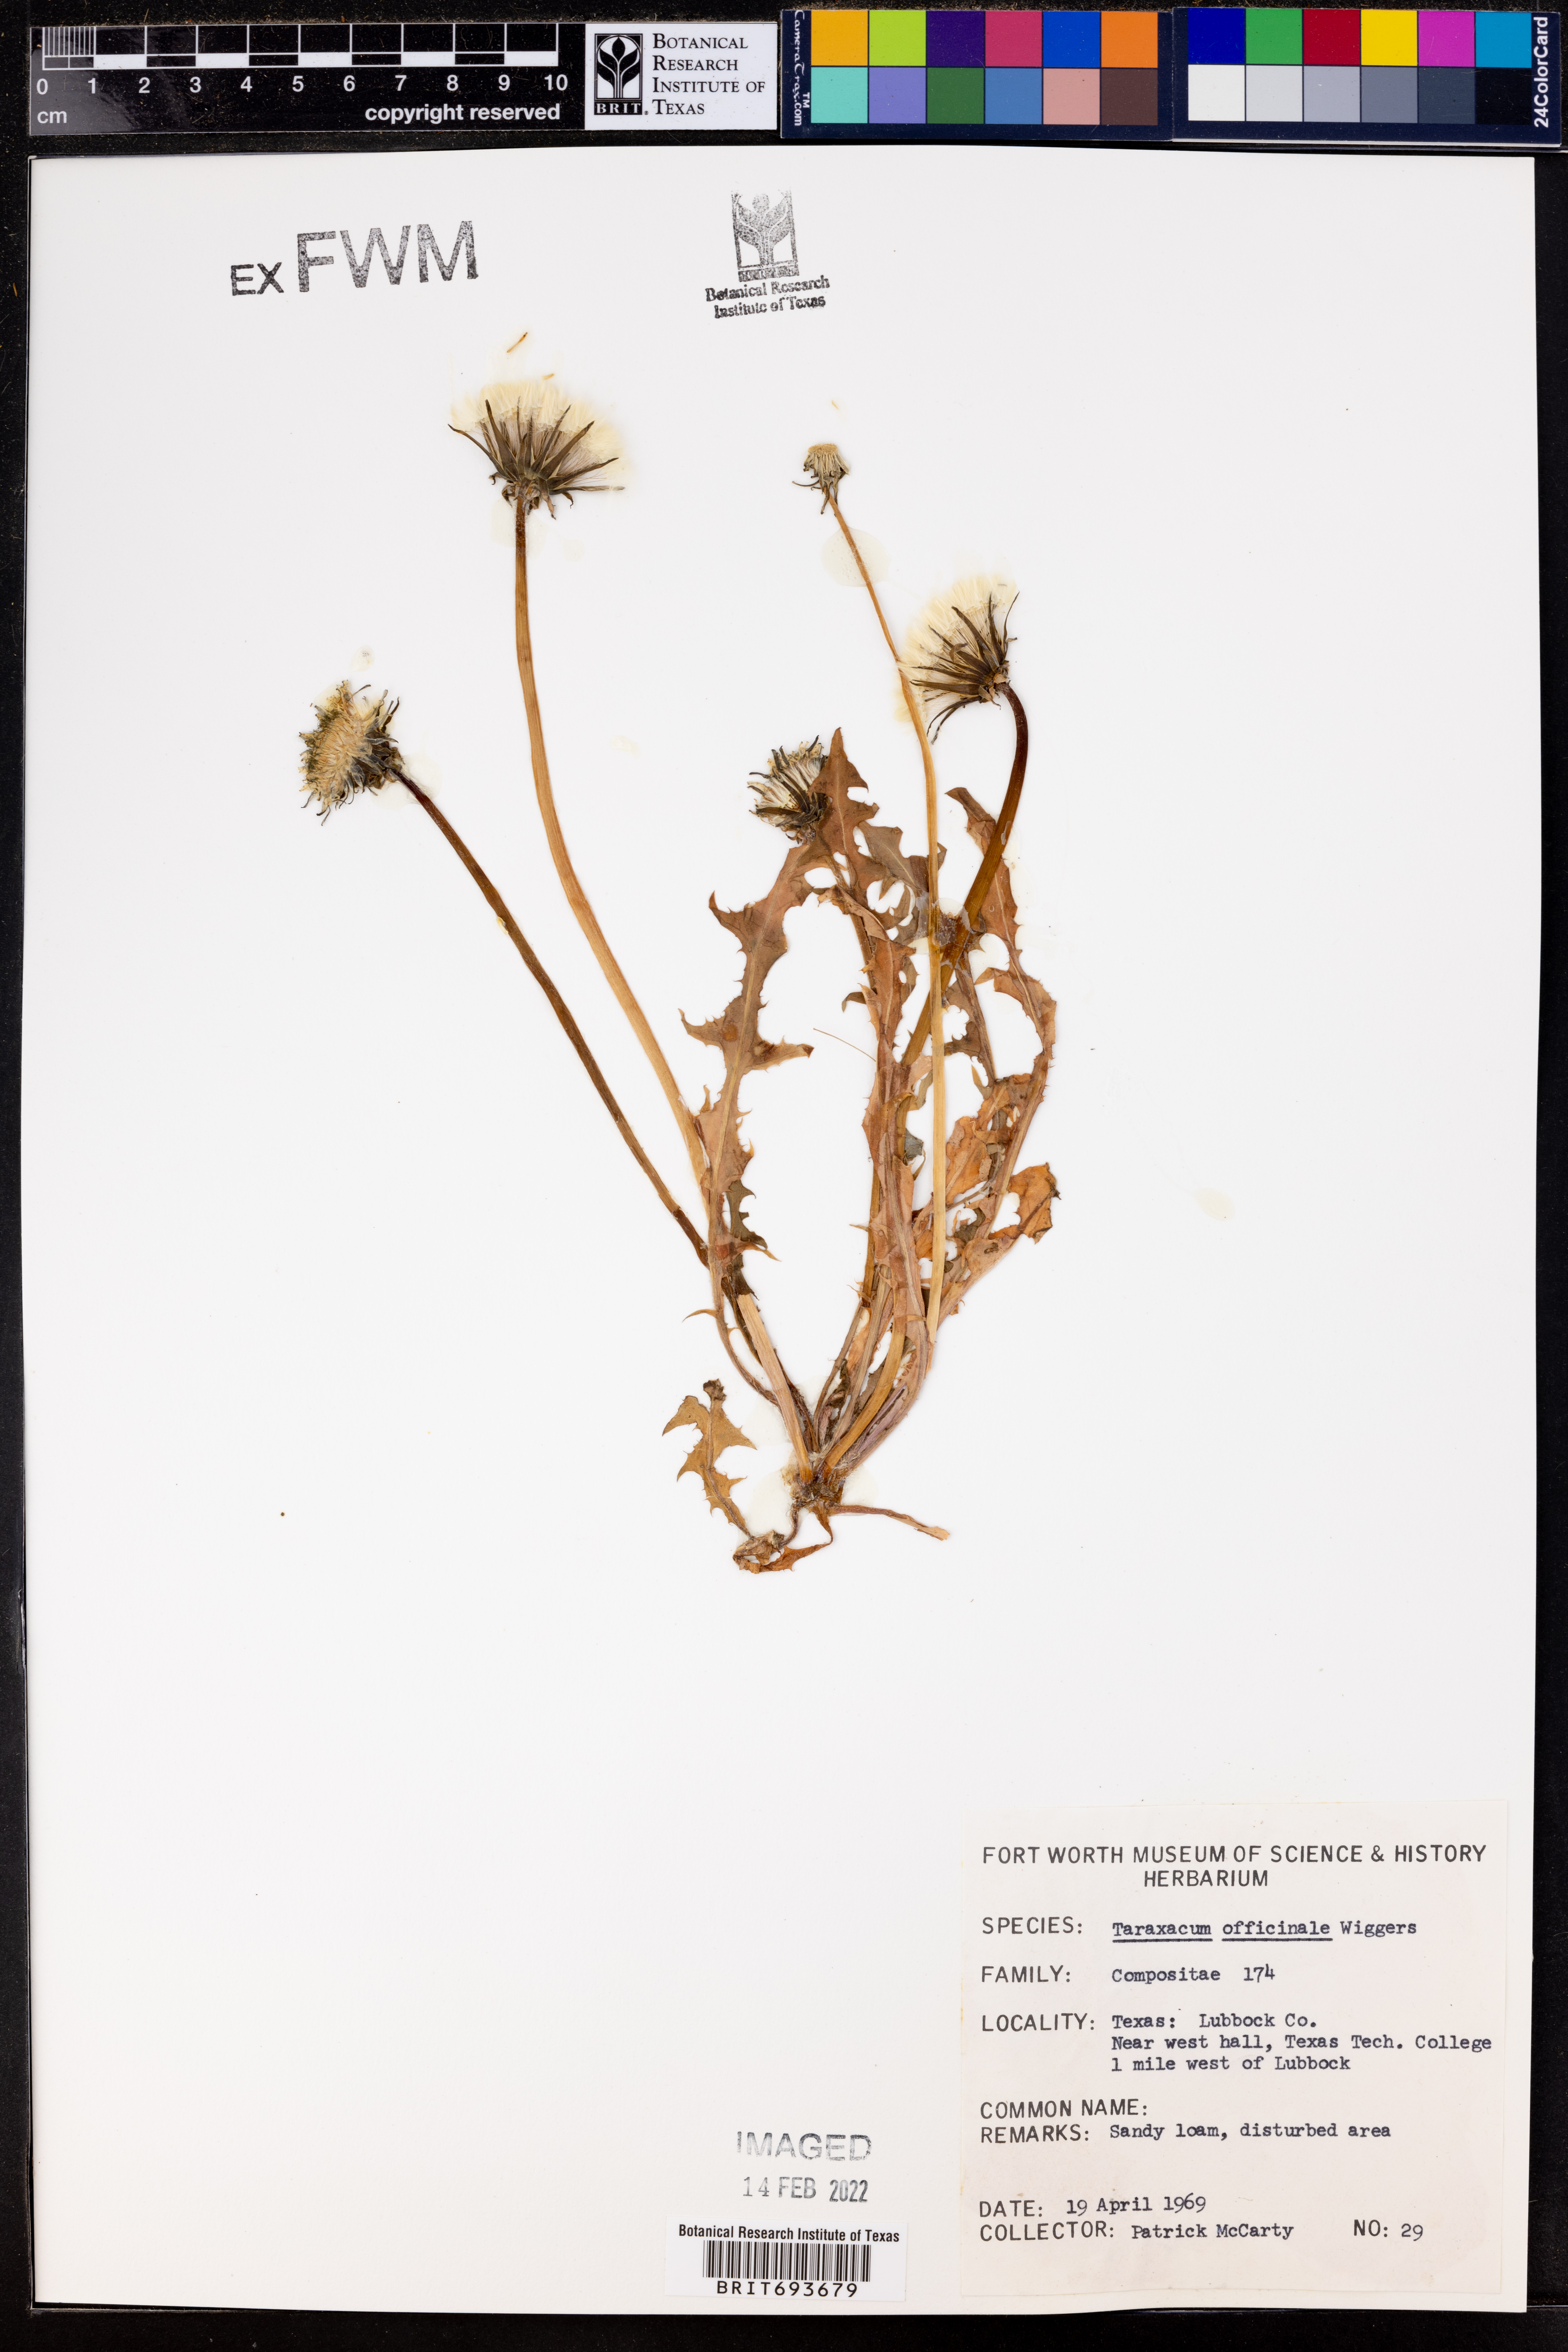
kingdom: Plantae
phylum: Tracheophyta
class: Magnoliopsida
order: Asterales
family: Asteraceae
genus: Taraxacum
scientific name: Taraxacum officinale
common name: Common dandelion
